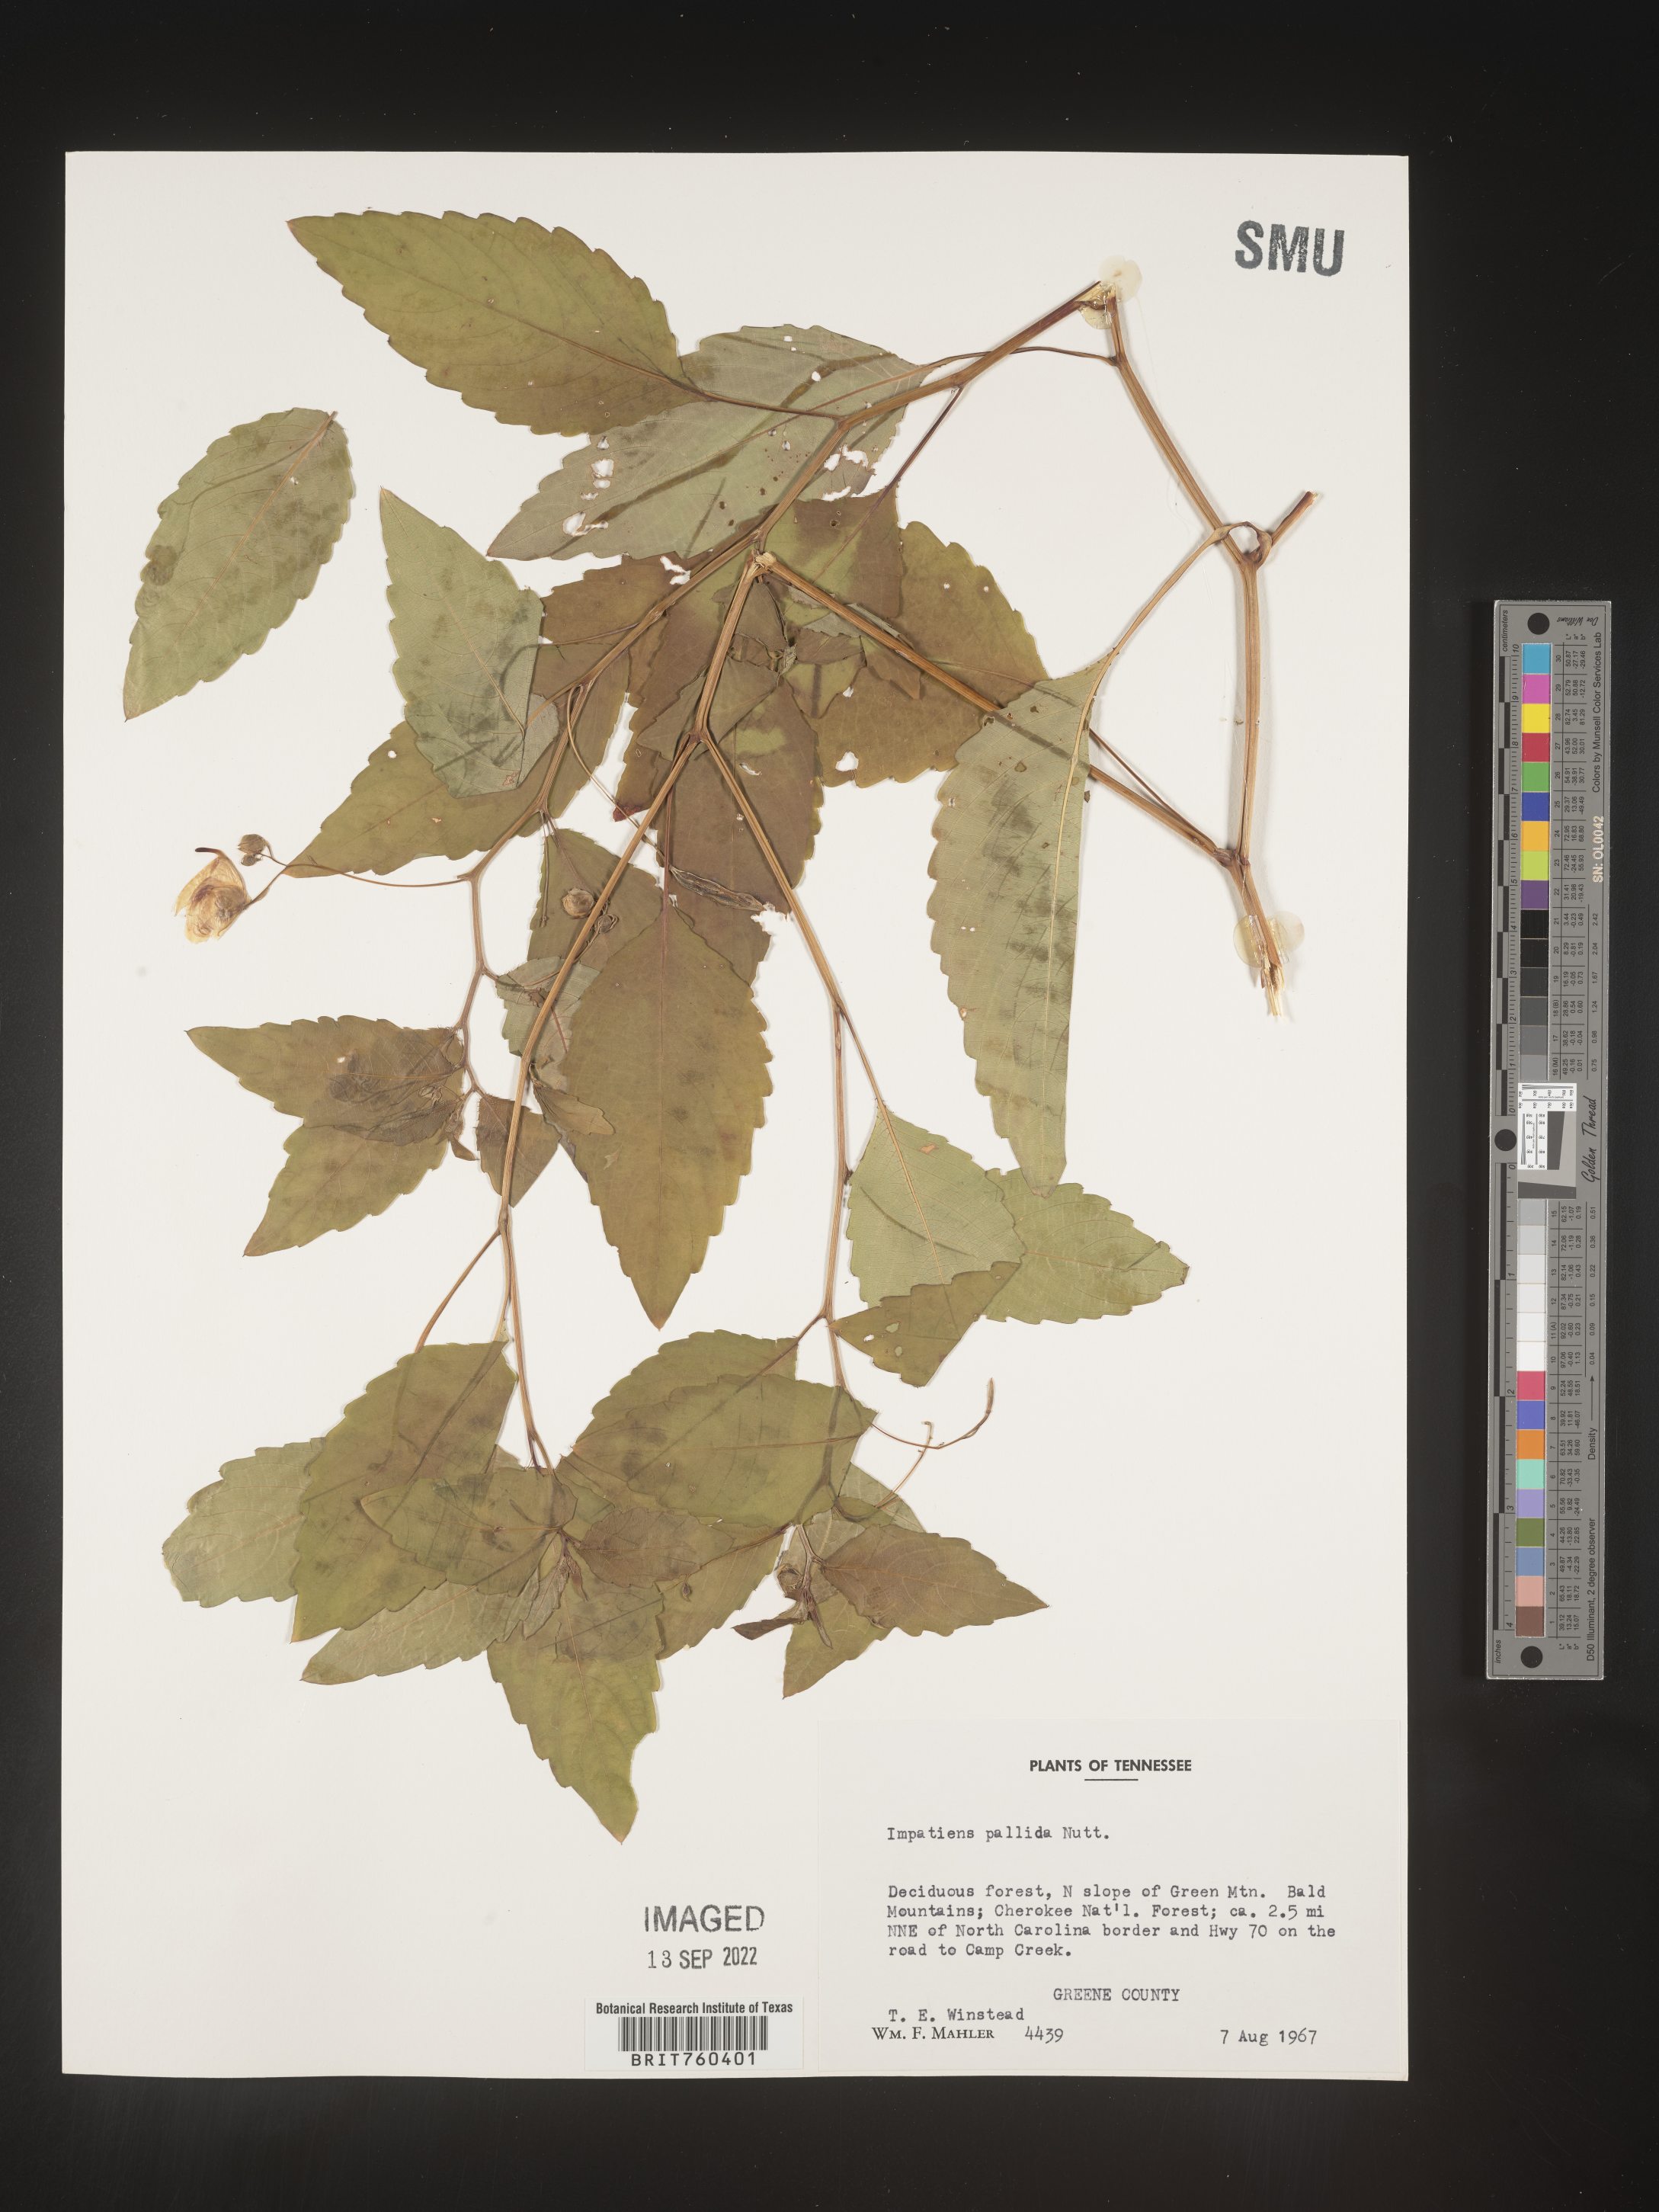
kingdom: Plantae
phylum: Tracheophyta
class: Magnoliopsida
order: Ericales
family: Balsaminaceae
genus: Impatiens
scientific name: Impatiens pallida
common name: Pale snapweed
